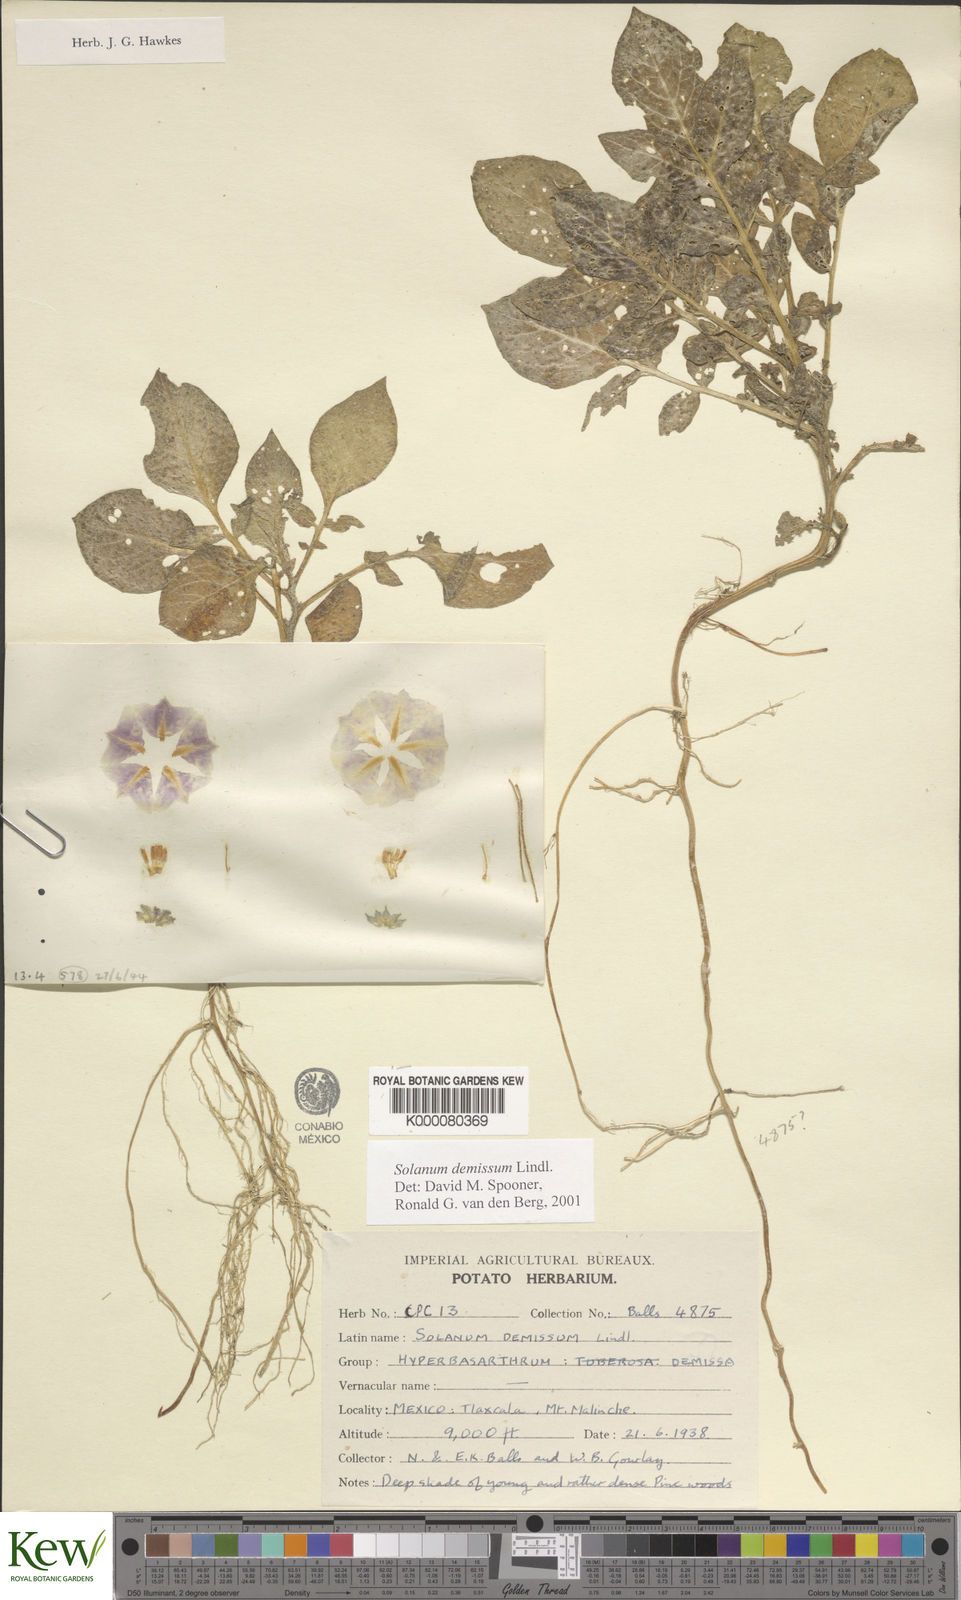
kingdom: Plantae
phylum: Tracheophyta
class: Magnoliopsida
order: Solanales
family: Solanaceae
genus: Solanum
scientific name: Solanum demissum
